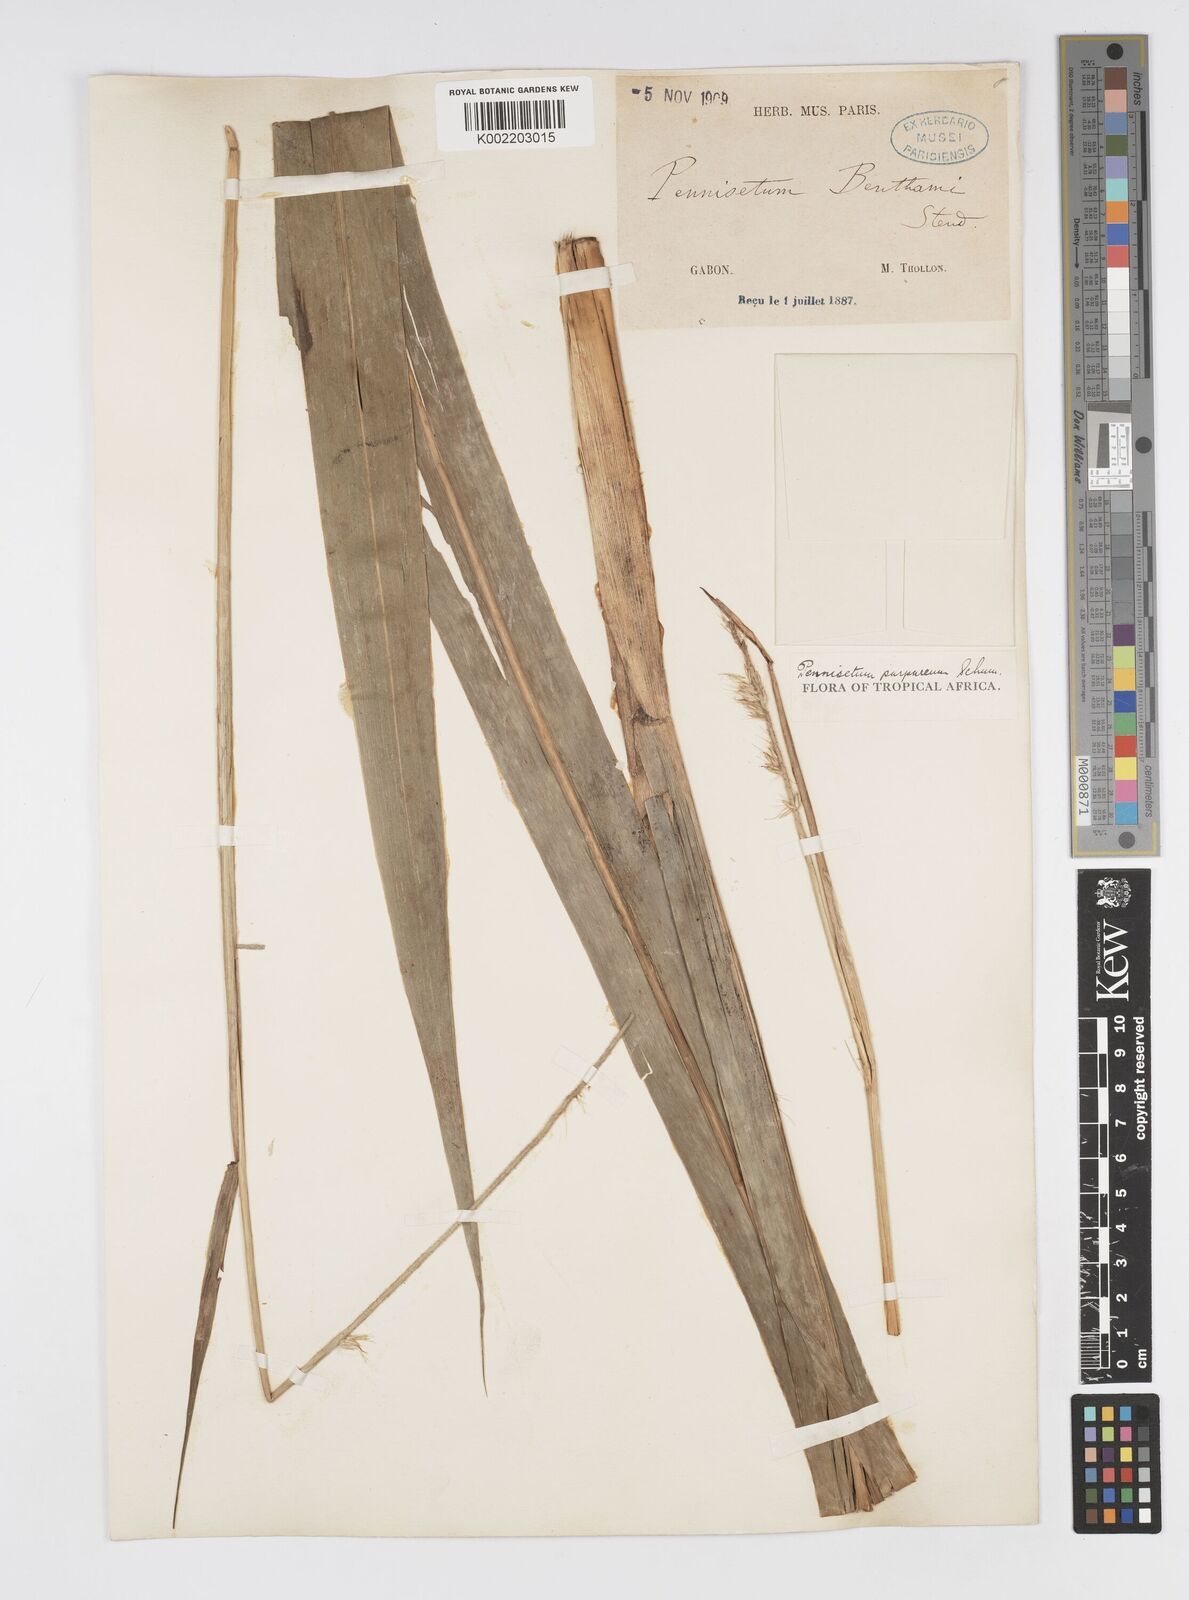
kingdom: Plantae
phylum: Tracheophyta
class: Liliopsida
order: Poales
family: Poaceae
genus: Cenchrus
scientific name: Cenchrus purpureus
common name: Elephant grass
